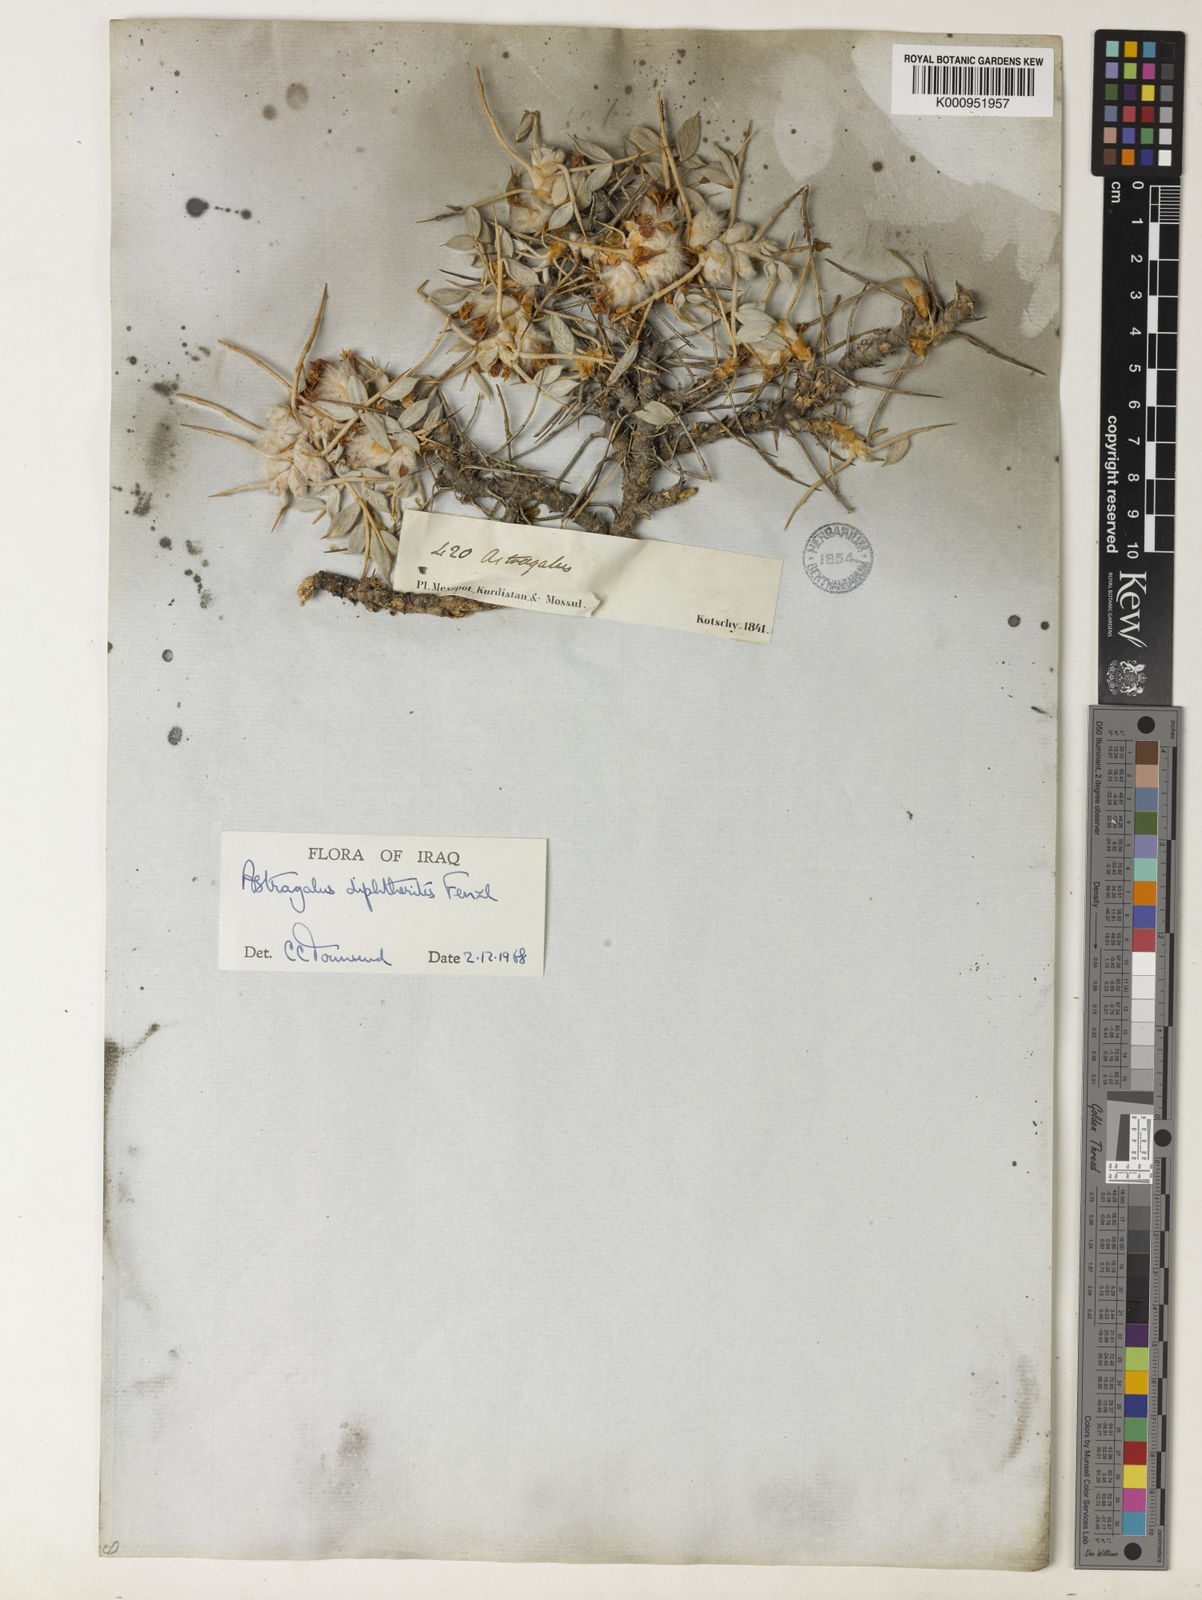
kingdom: Plantae
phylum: Tracheophyta
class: Magnoliopsida
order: Fabales
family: Fabaceae
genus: Astragalus
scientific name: Astragalus diphtherites
